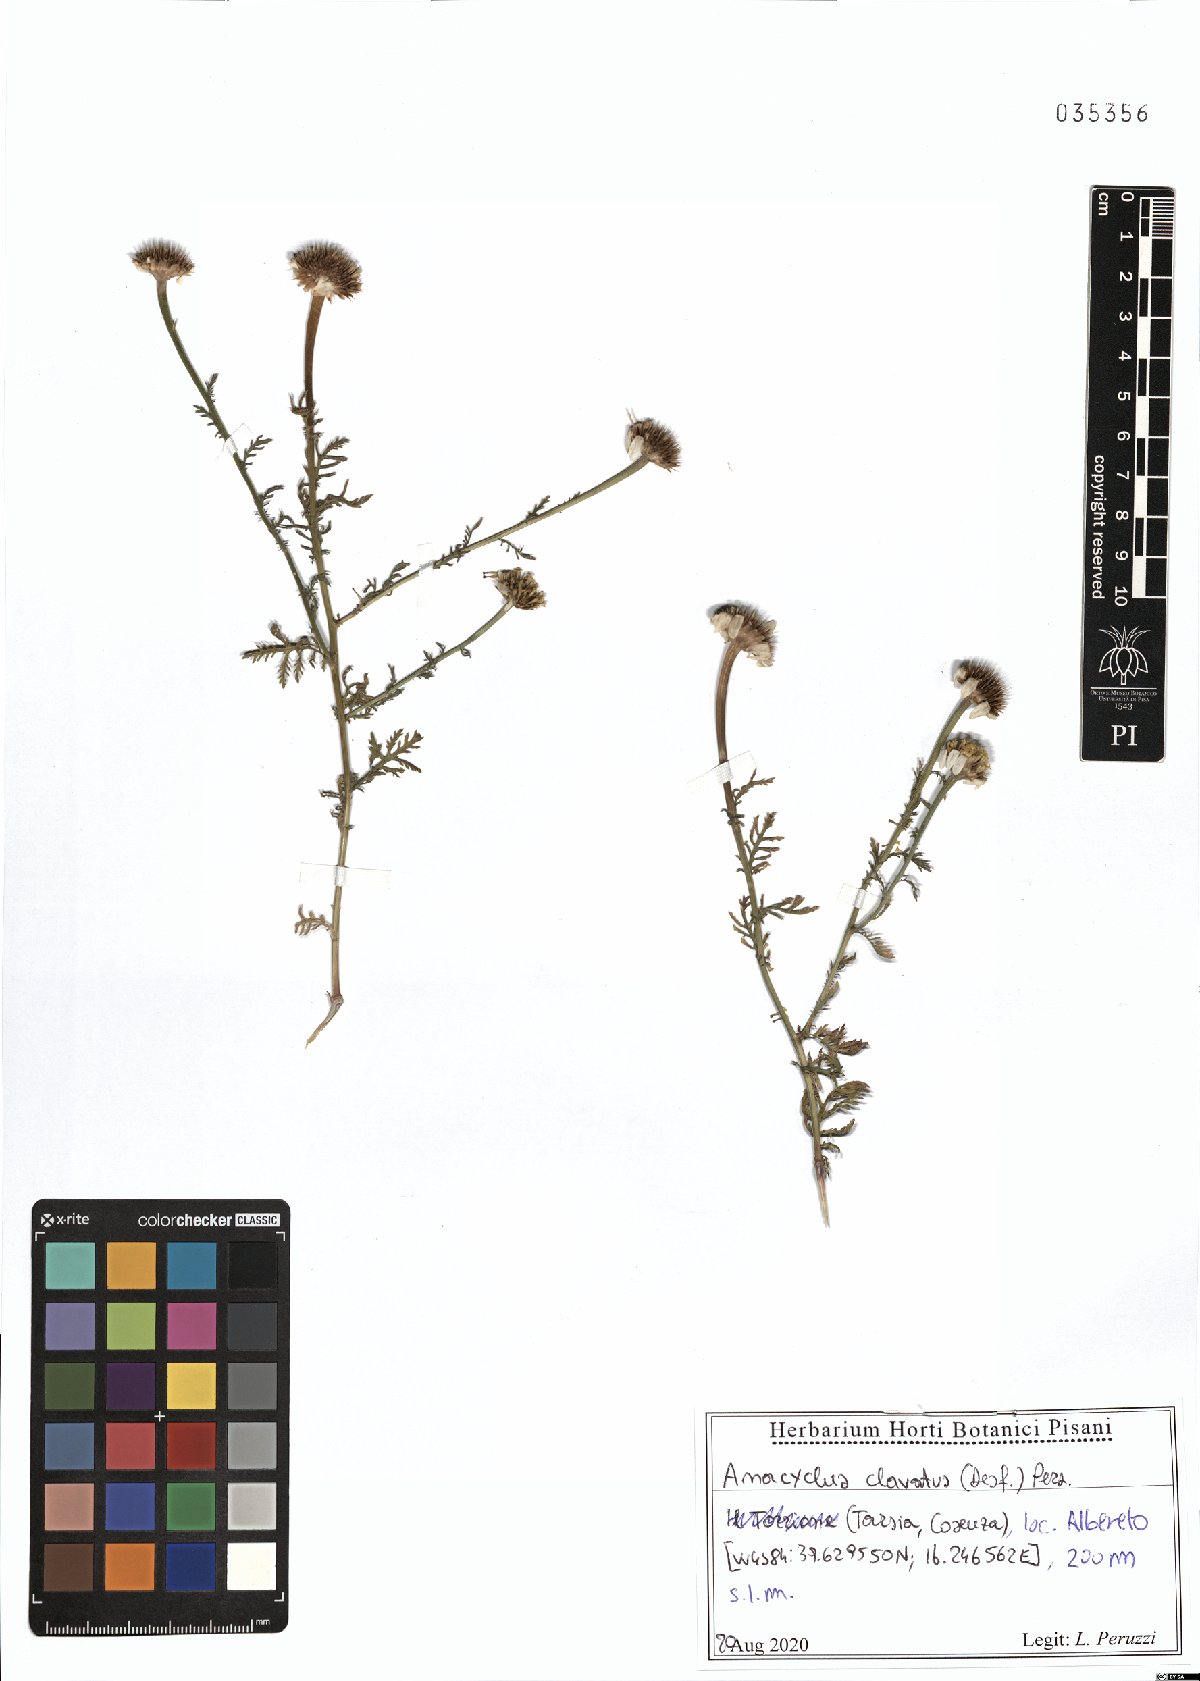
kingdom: Plantae
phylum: Tracheophyta
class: Magnoliopsida
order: Asterales
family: Asteraceae
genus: Anacyclus
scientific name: Anacyclus clavatus
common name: Whitebuttons
